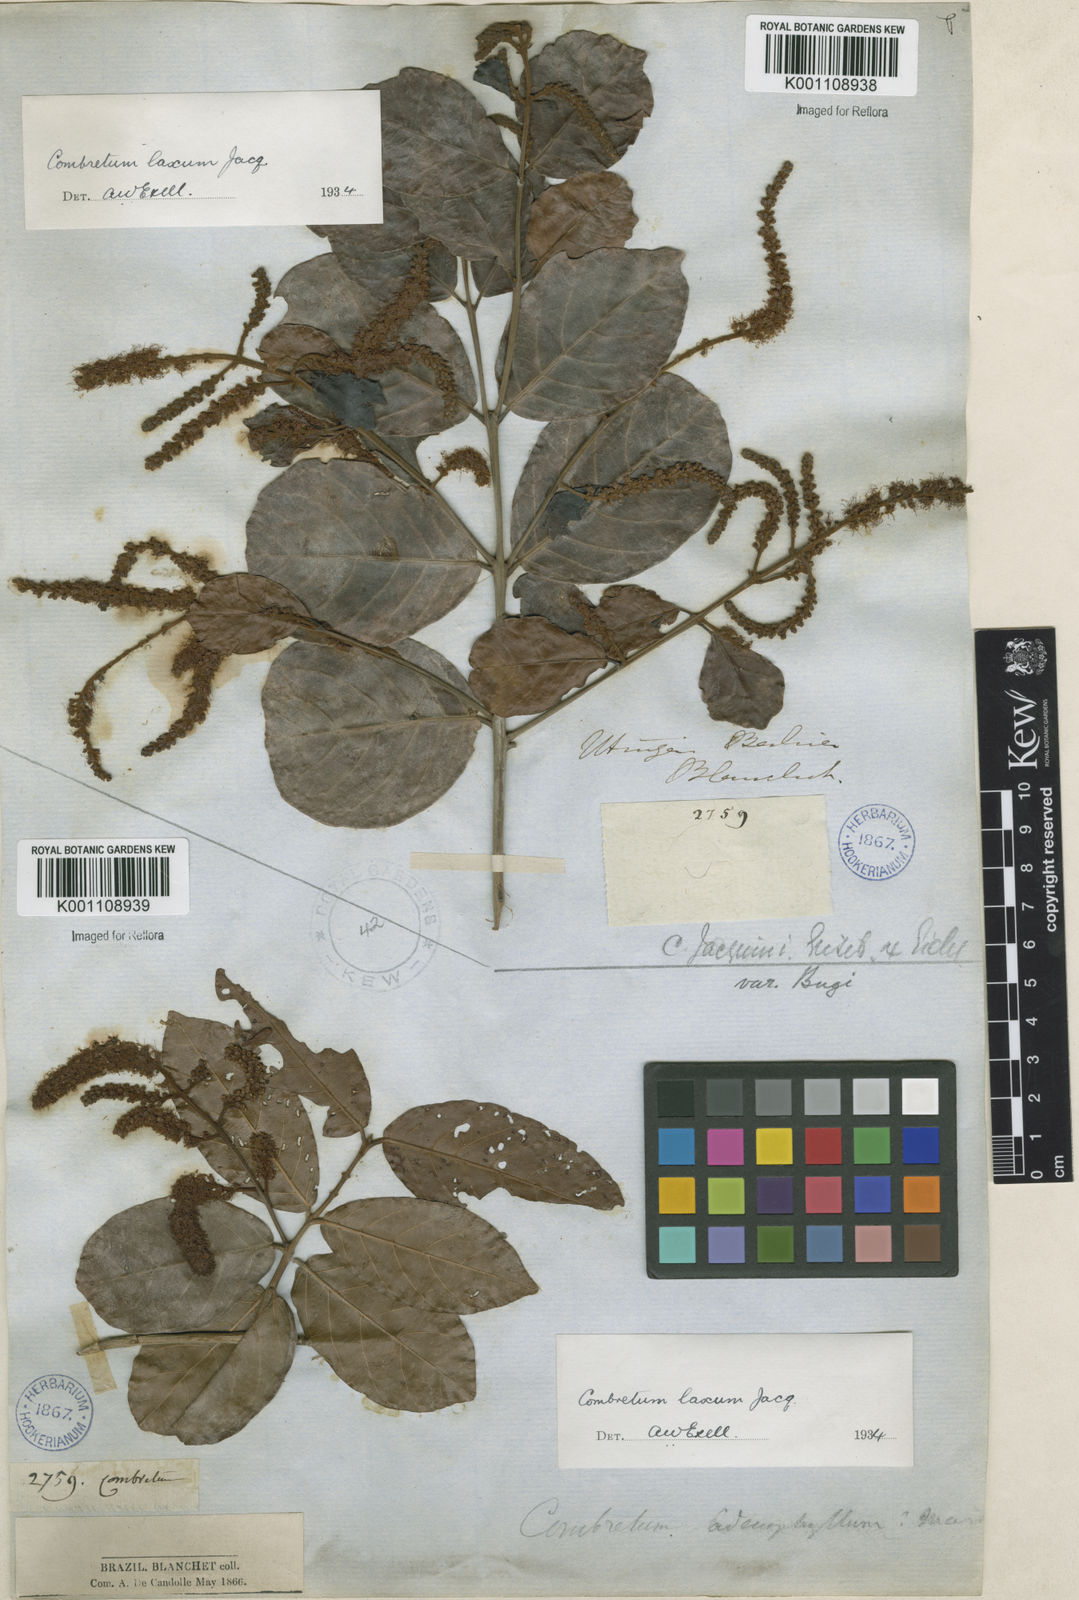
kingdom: Plantae
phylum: Tracheophyta
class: Magnoliopsida
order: Myrtales
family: Combretaceae
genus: Combretum
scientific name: Combretum laxum
